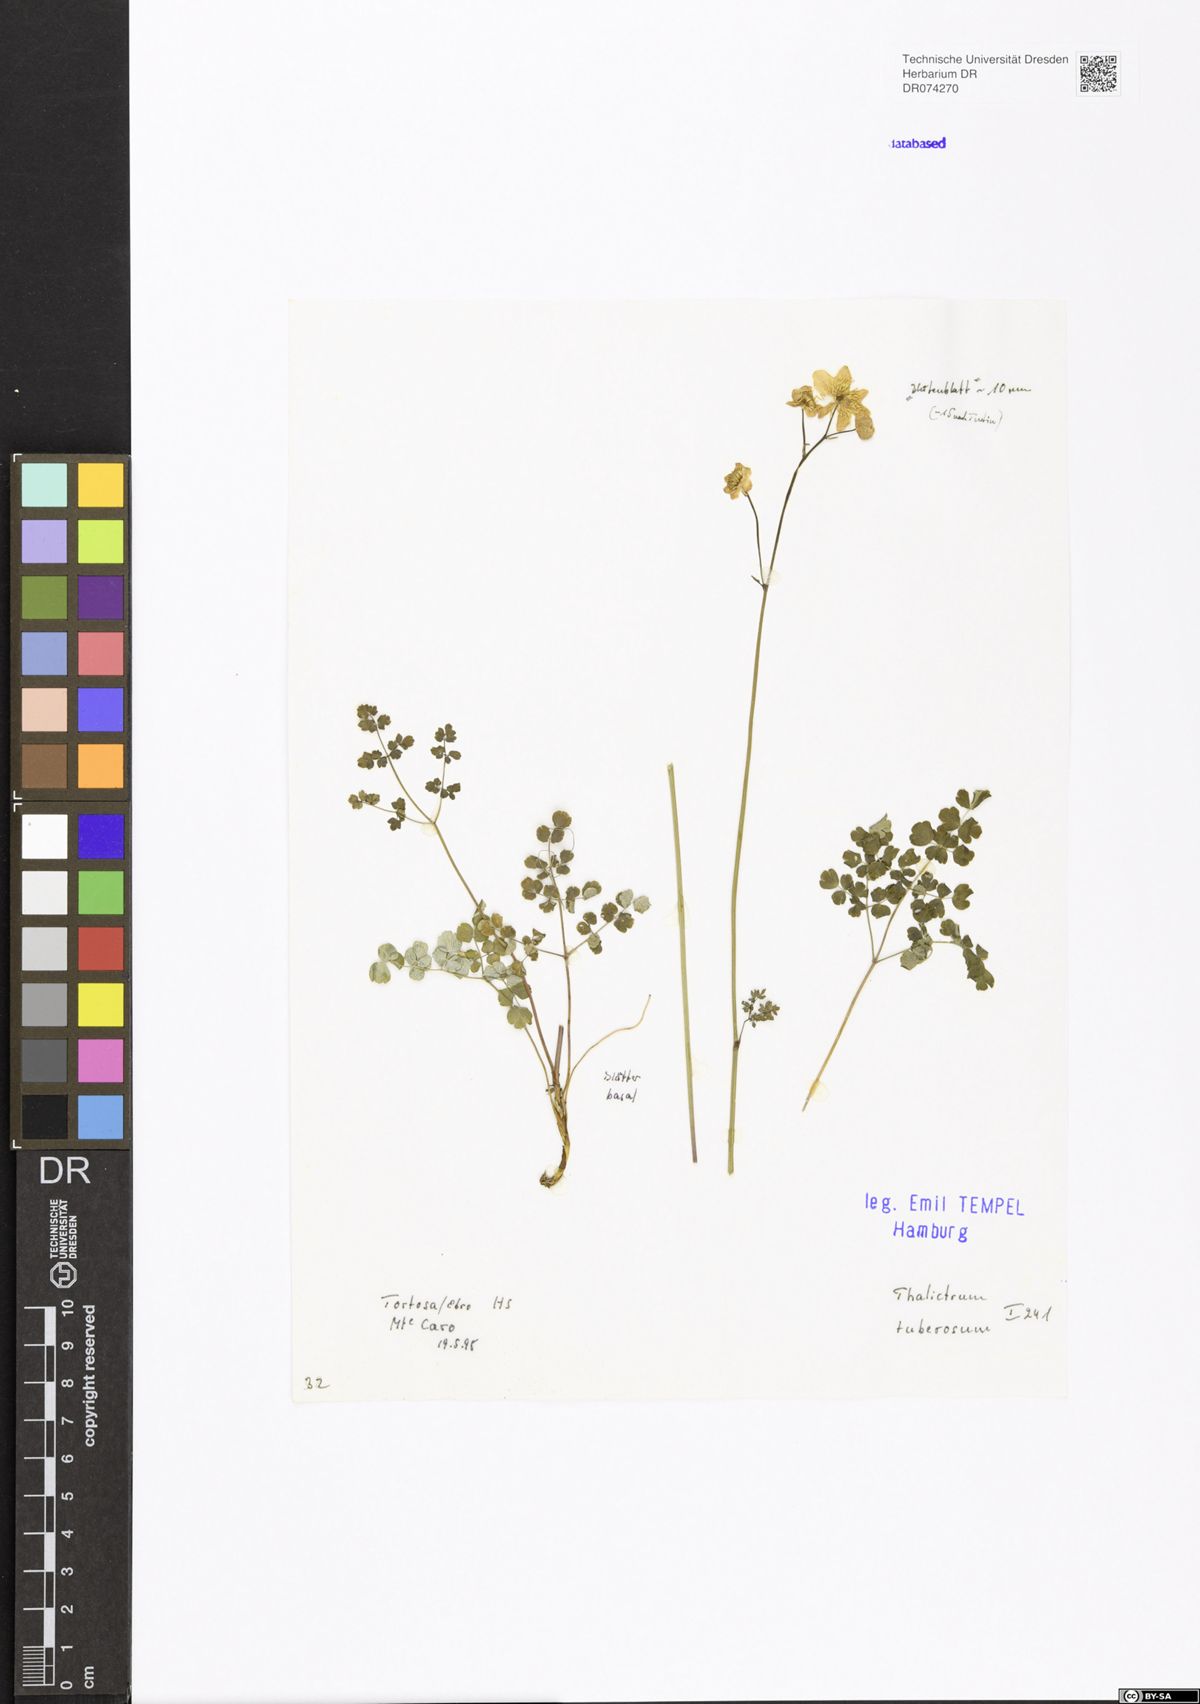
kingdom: Plantae
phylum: Tracheophyta
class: Magnoliopsida
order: Ranunculales
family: Ranunculaceae
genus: Thalictrum
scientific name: Thalictrum tuberosum
